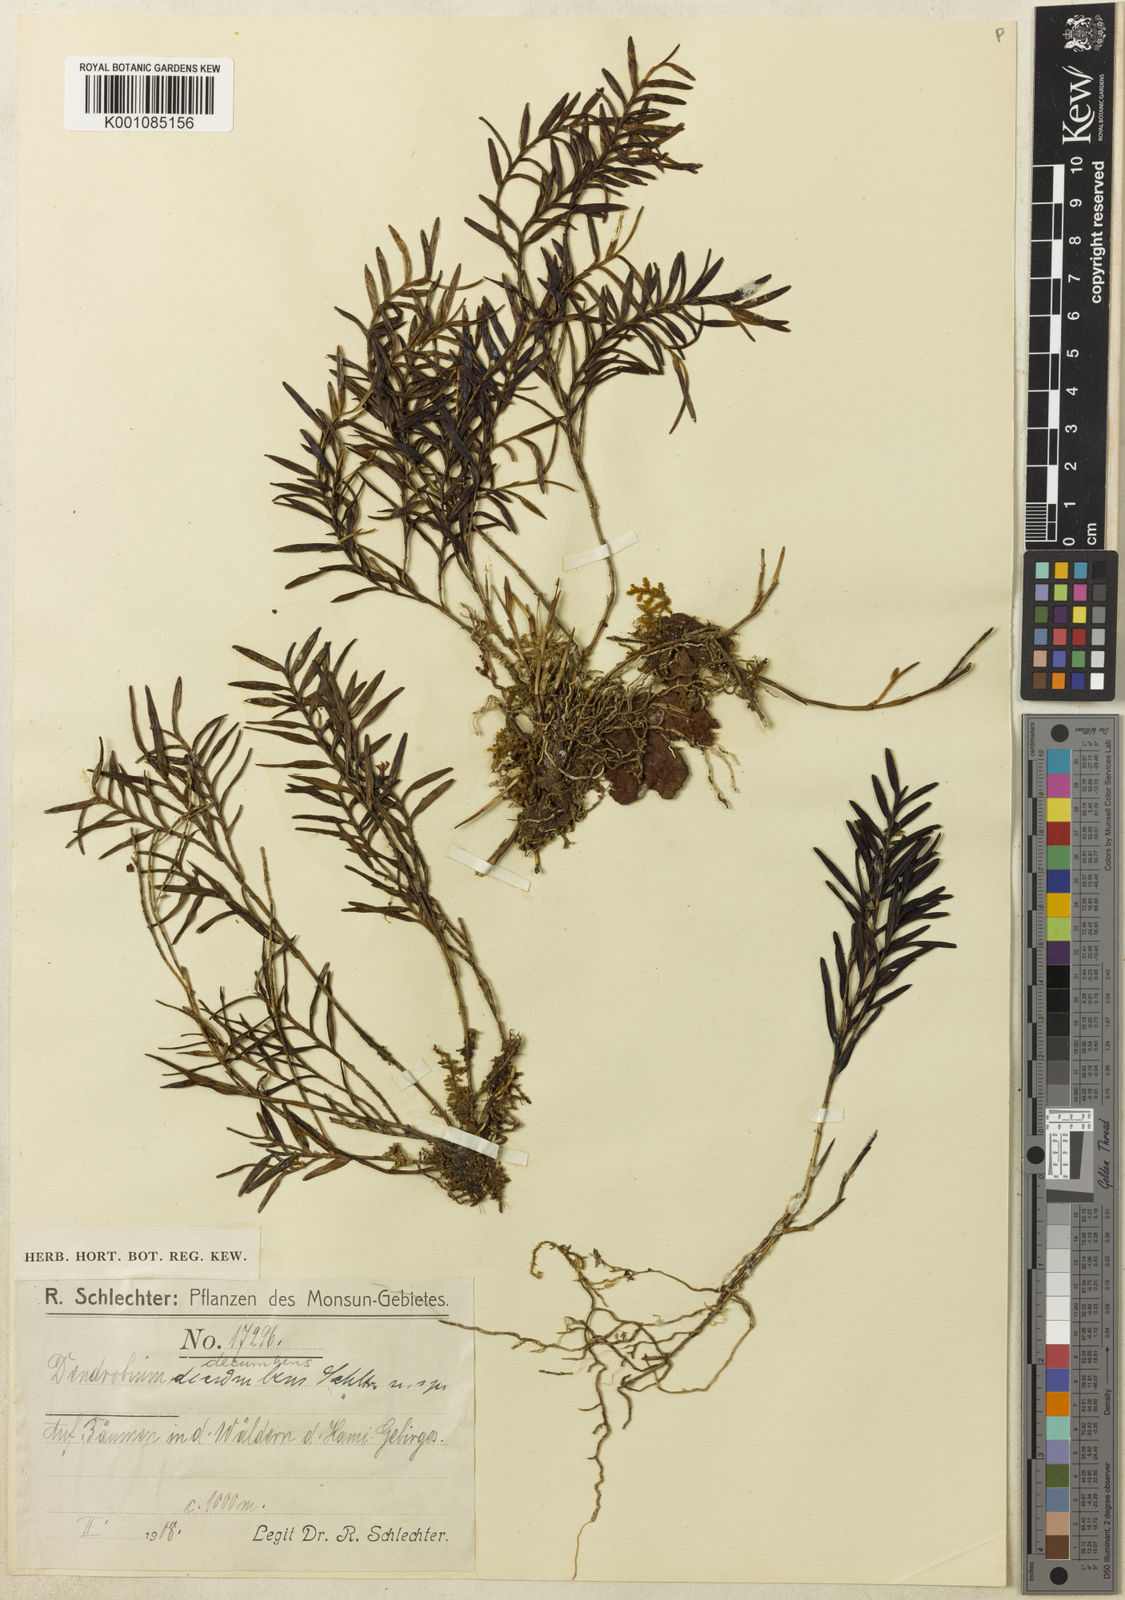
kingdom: Plantae
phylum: Tracheophyta
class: Liliopsida
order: Asparagales
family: Orchidaceae
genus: Dendrobium
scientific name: Dendrobium decumbens
